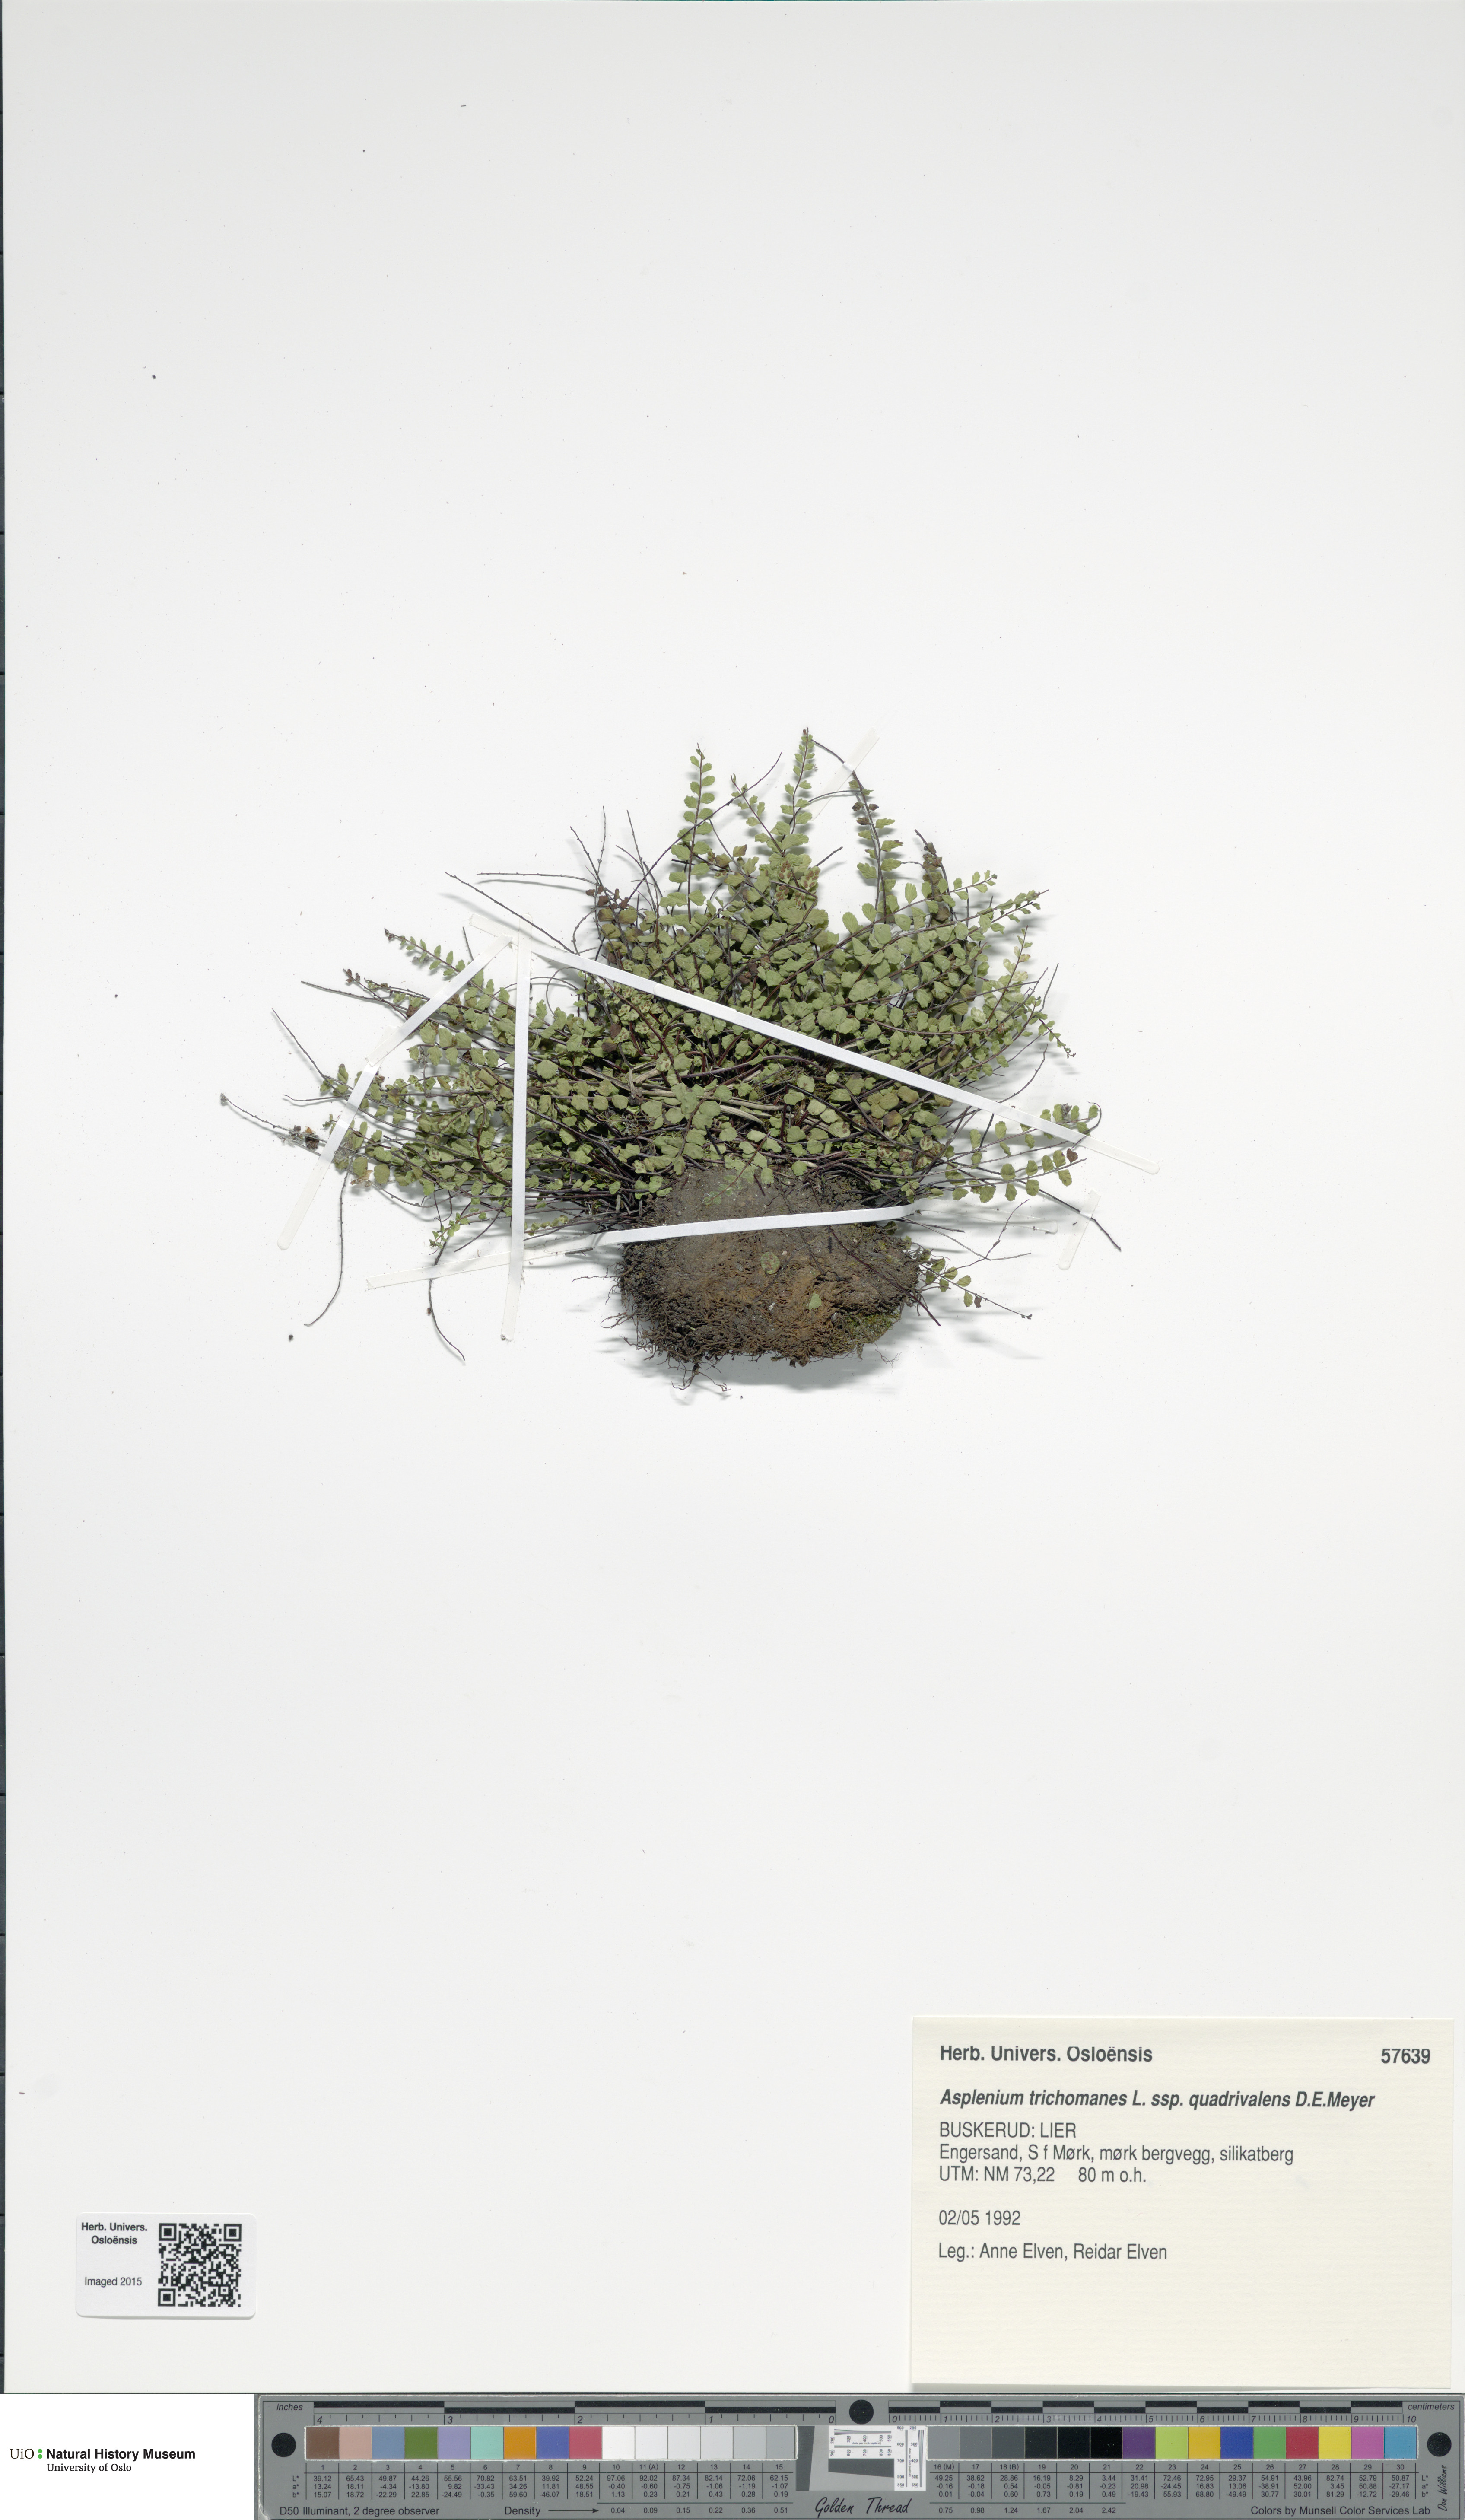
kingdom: Plantae
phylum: Tracheophyta
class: Polypodiopsida
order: Polypodiales
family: Aspleniaceae
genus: Asplenium
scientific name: Asplenium quadrivalens
